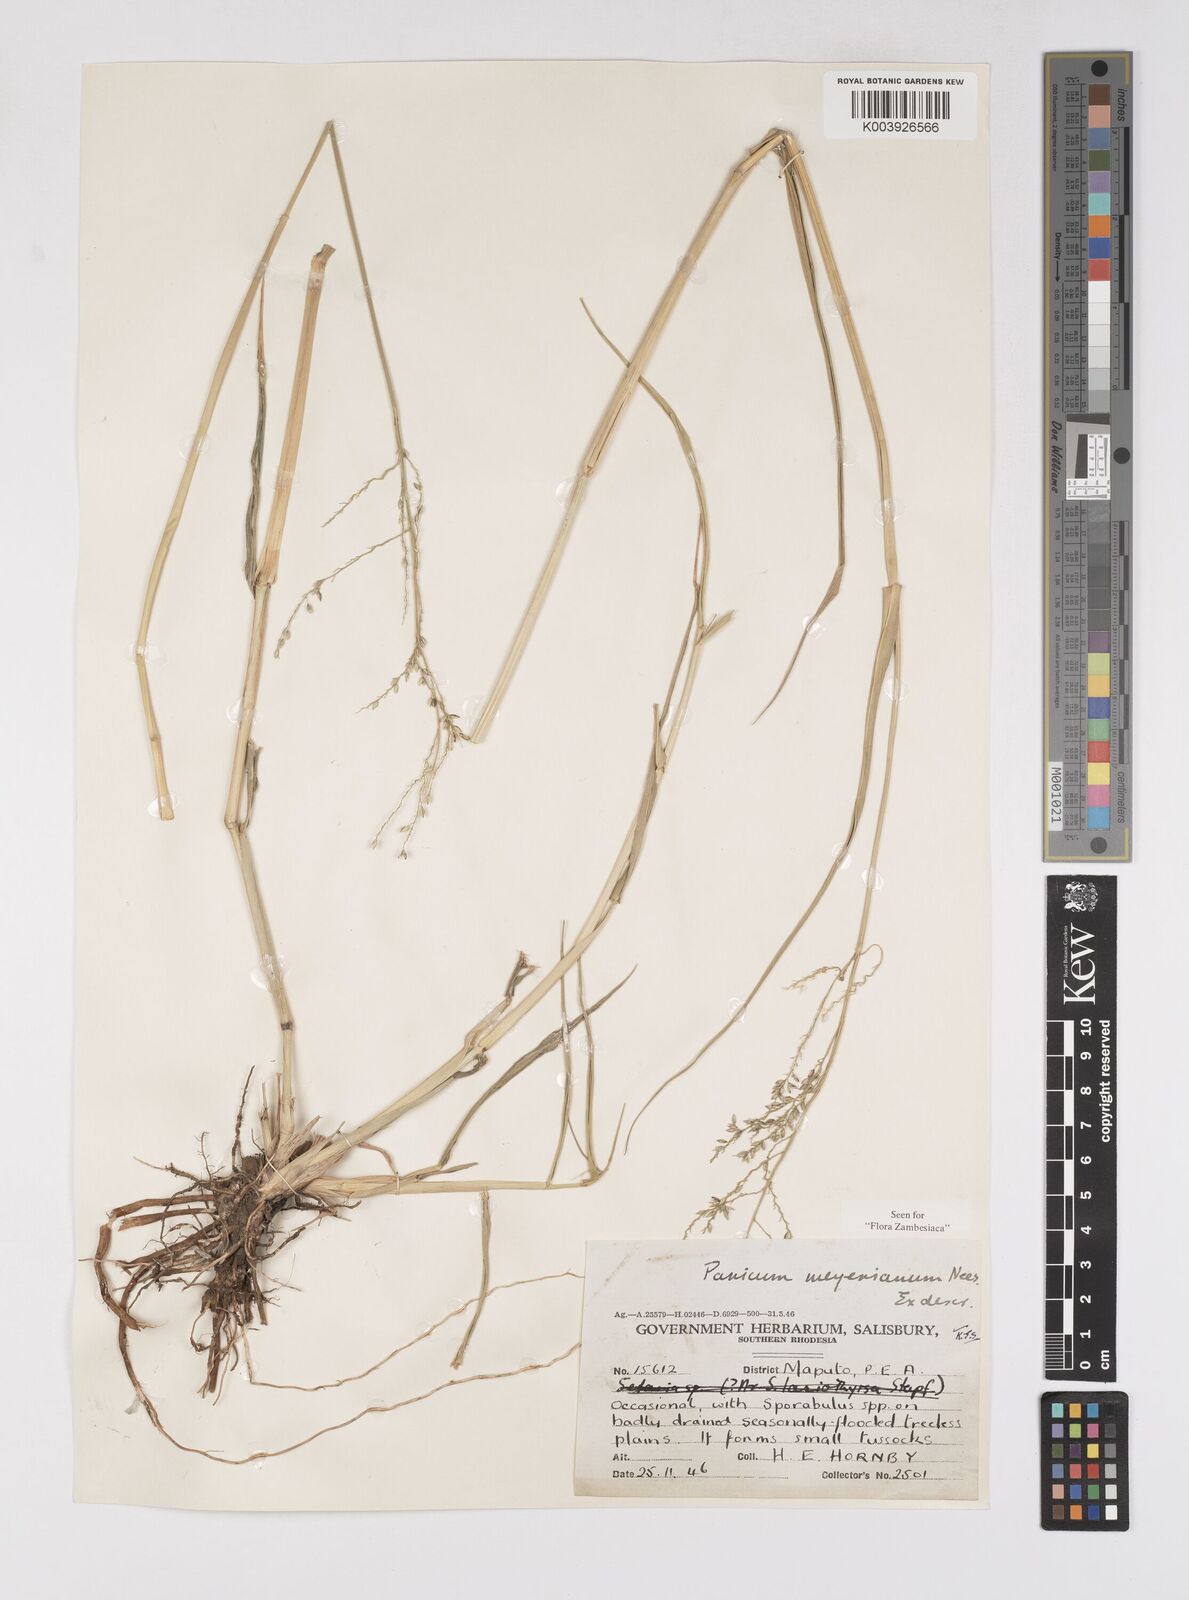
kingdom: Plantae
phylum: Tracheophyta
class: Liliopsida
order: Poales
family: Poaceae
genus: Eriochloa
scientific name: Eriochloa meyeriana
